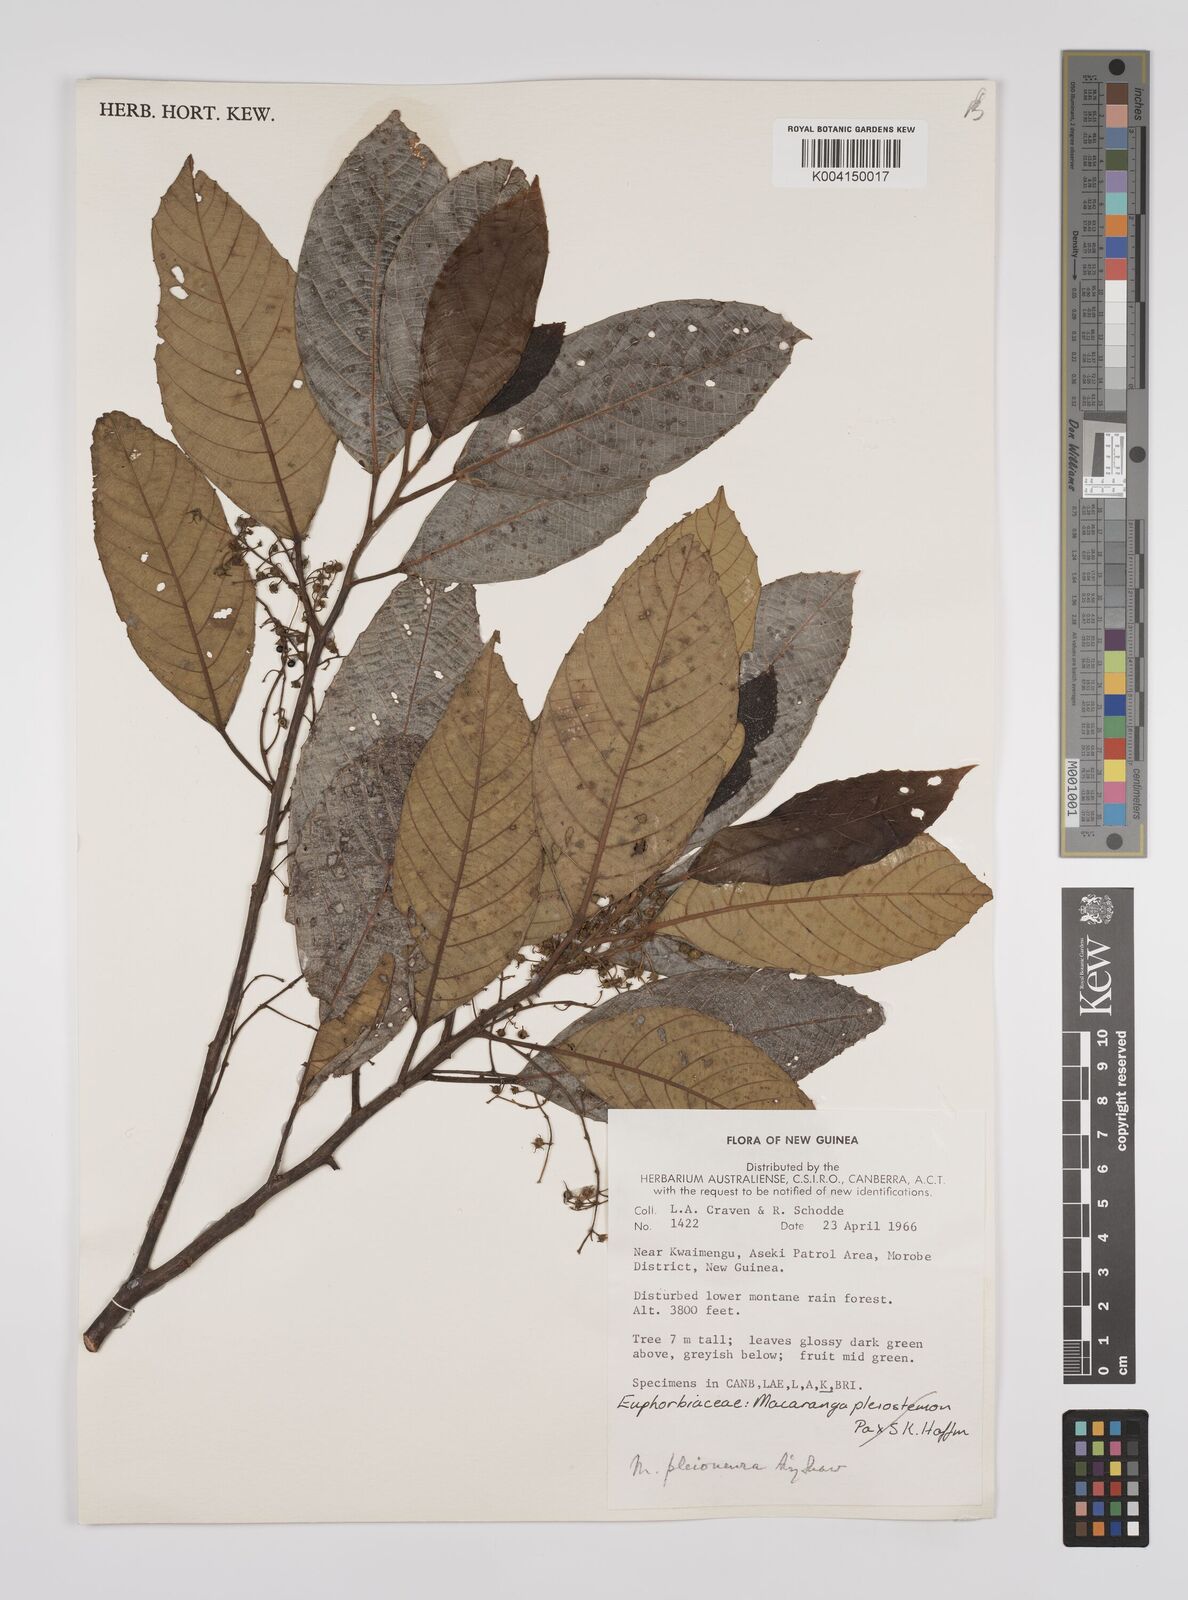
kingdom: Plantae
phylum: Tracheophyta
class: Magnoliopsida
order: Malpighiales
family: Euphorbiaceae
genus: Macaranga
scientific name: Macaranga pleioneura
